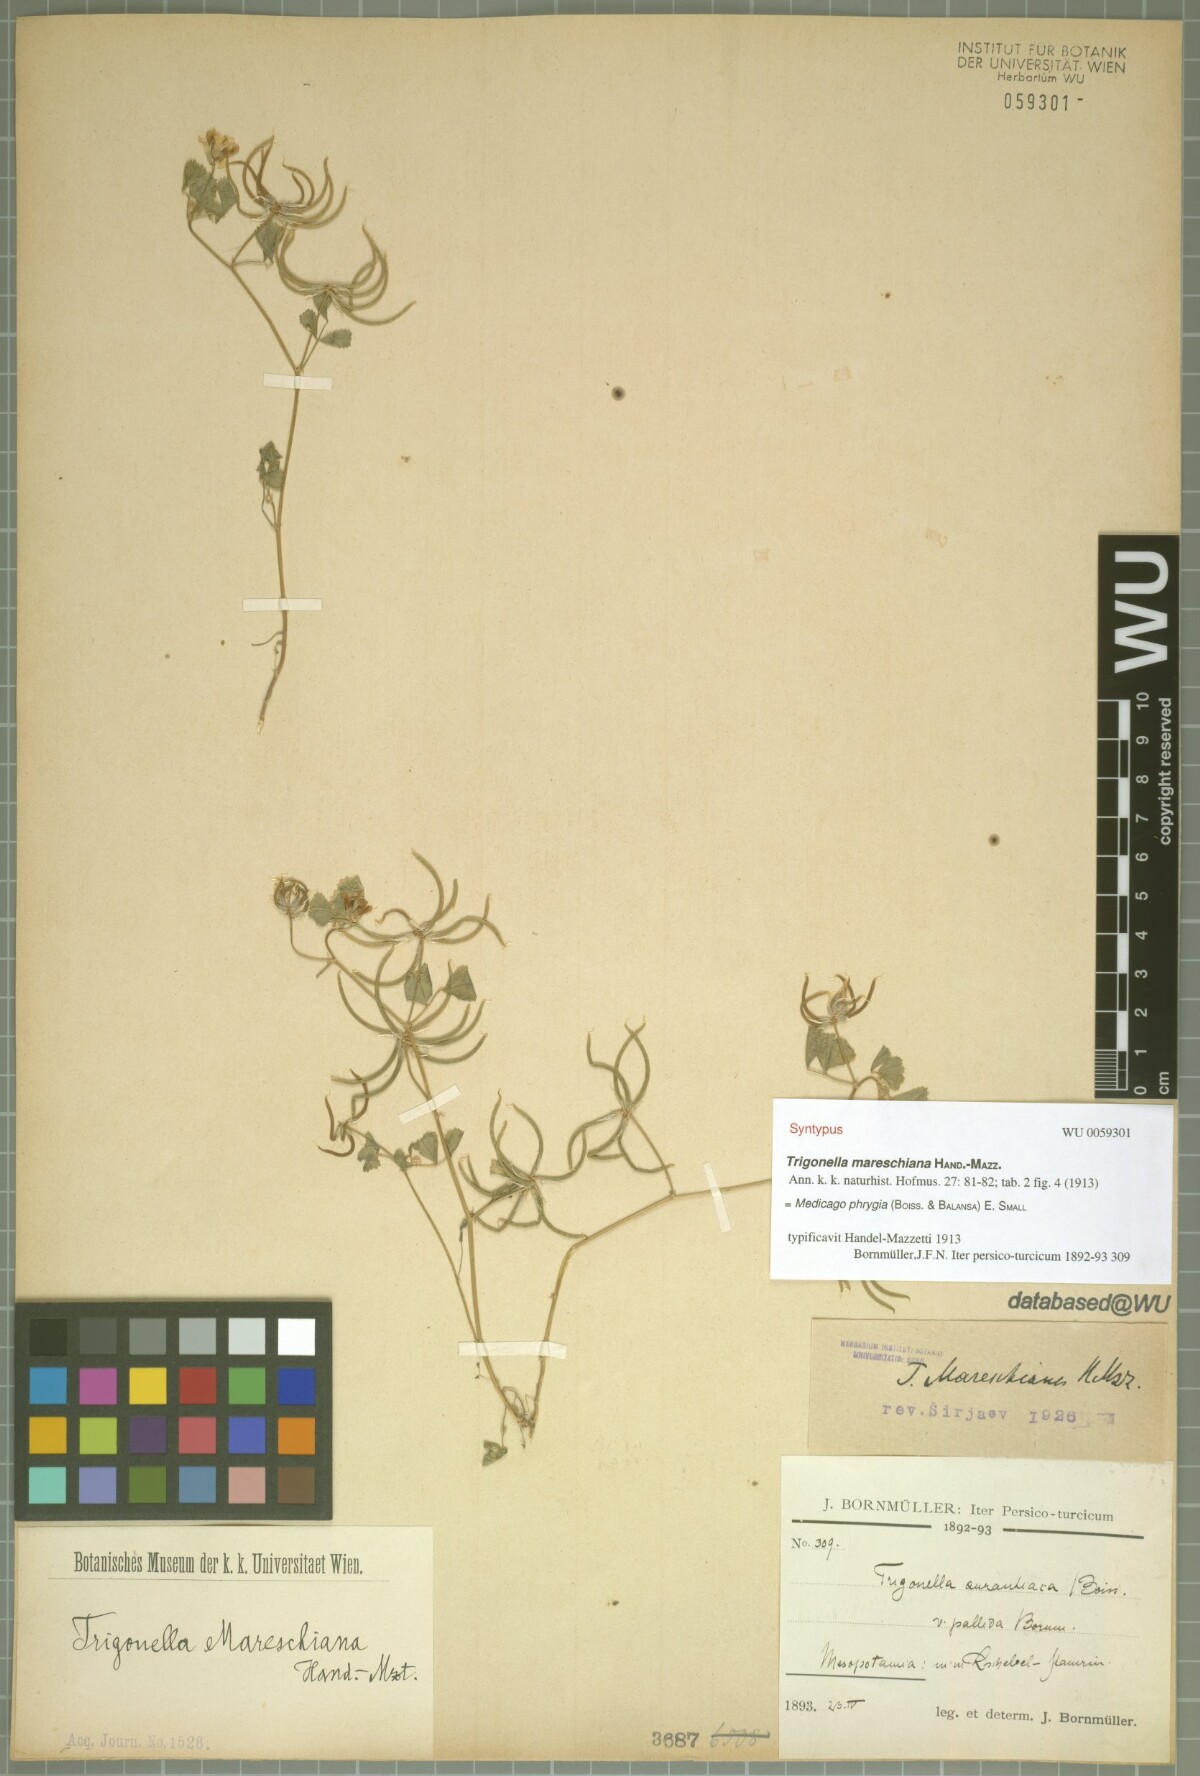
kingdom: Plantae
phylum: Tracheophyta
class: Magnoliopsida
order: Fabales
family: Fabaceae
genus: Medicago
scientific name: Medicago phrygia
